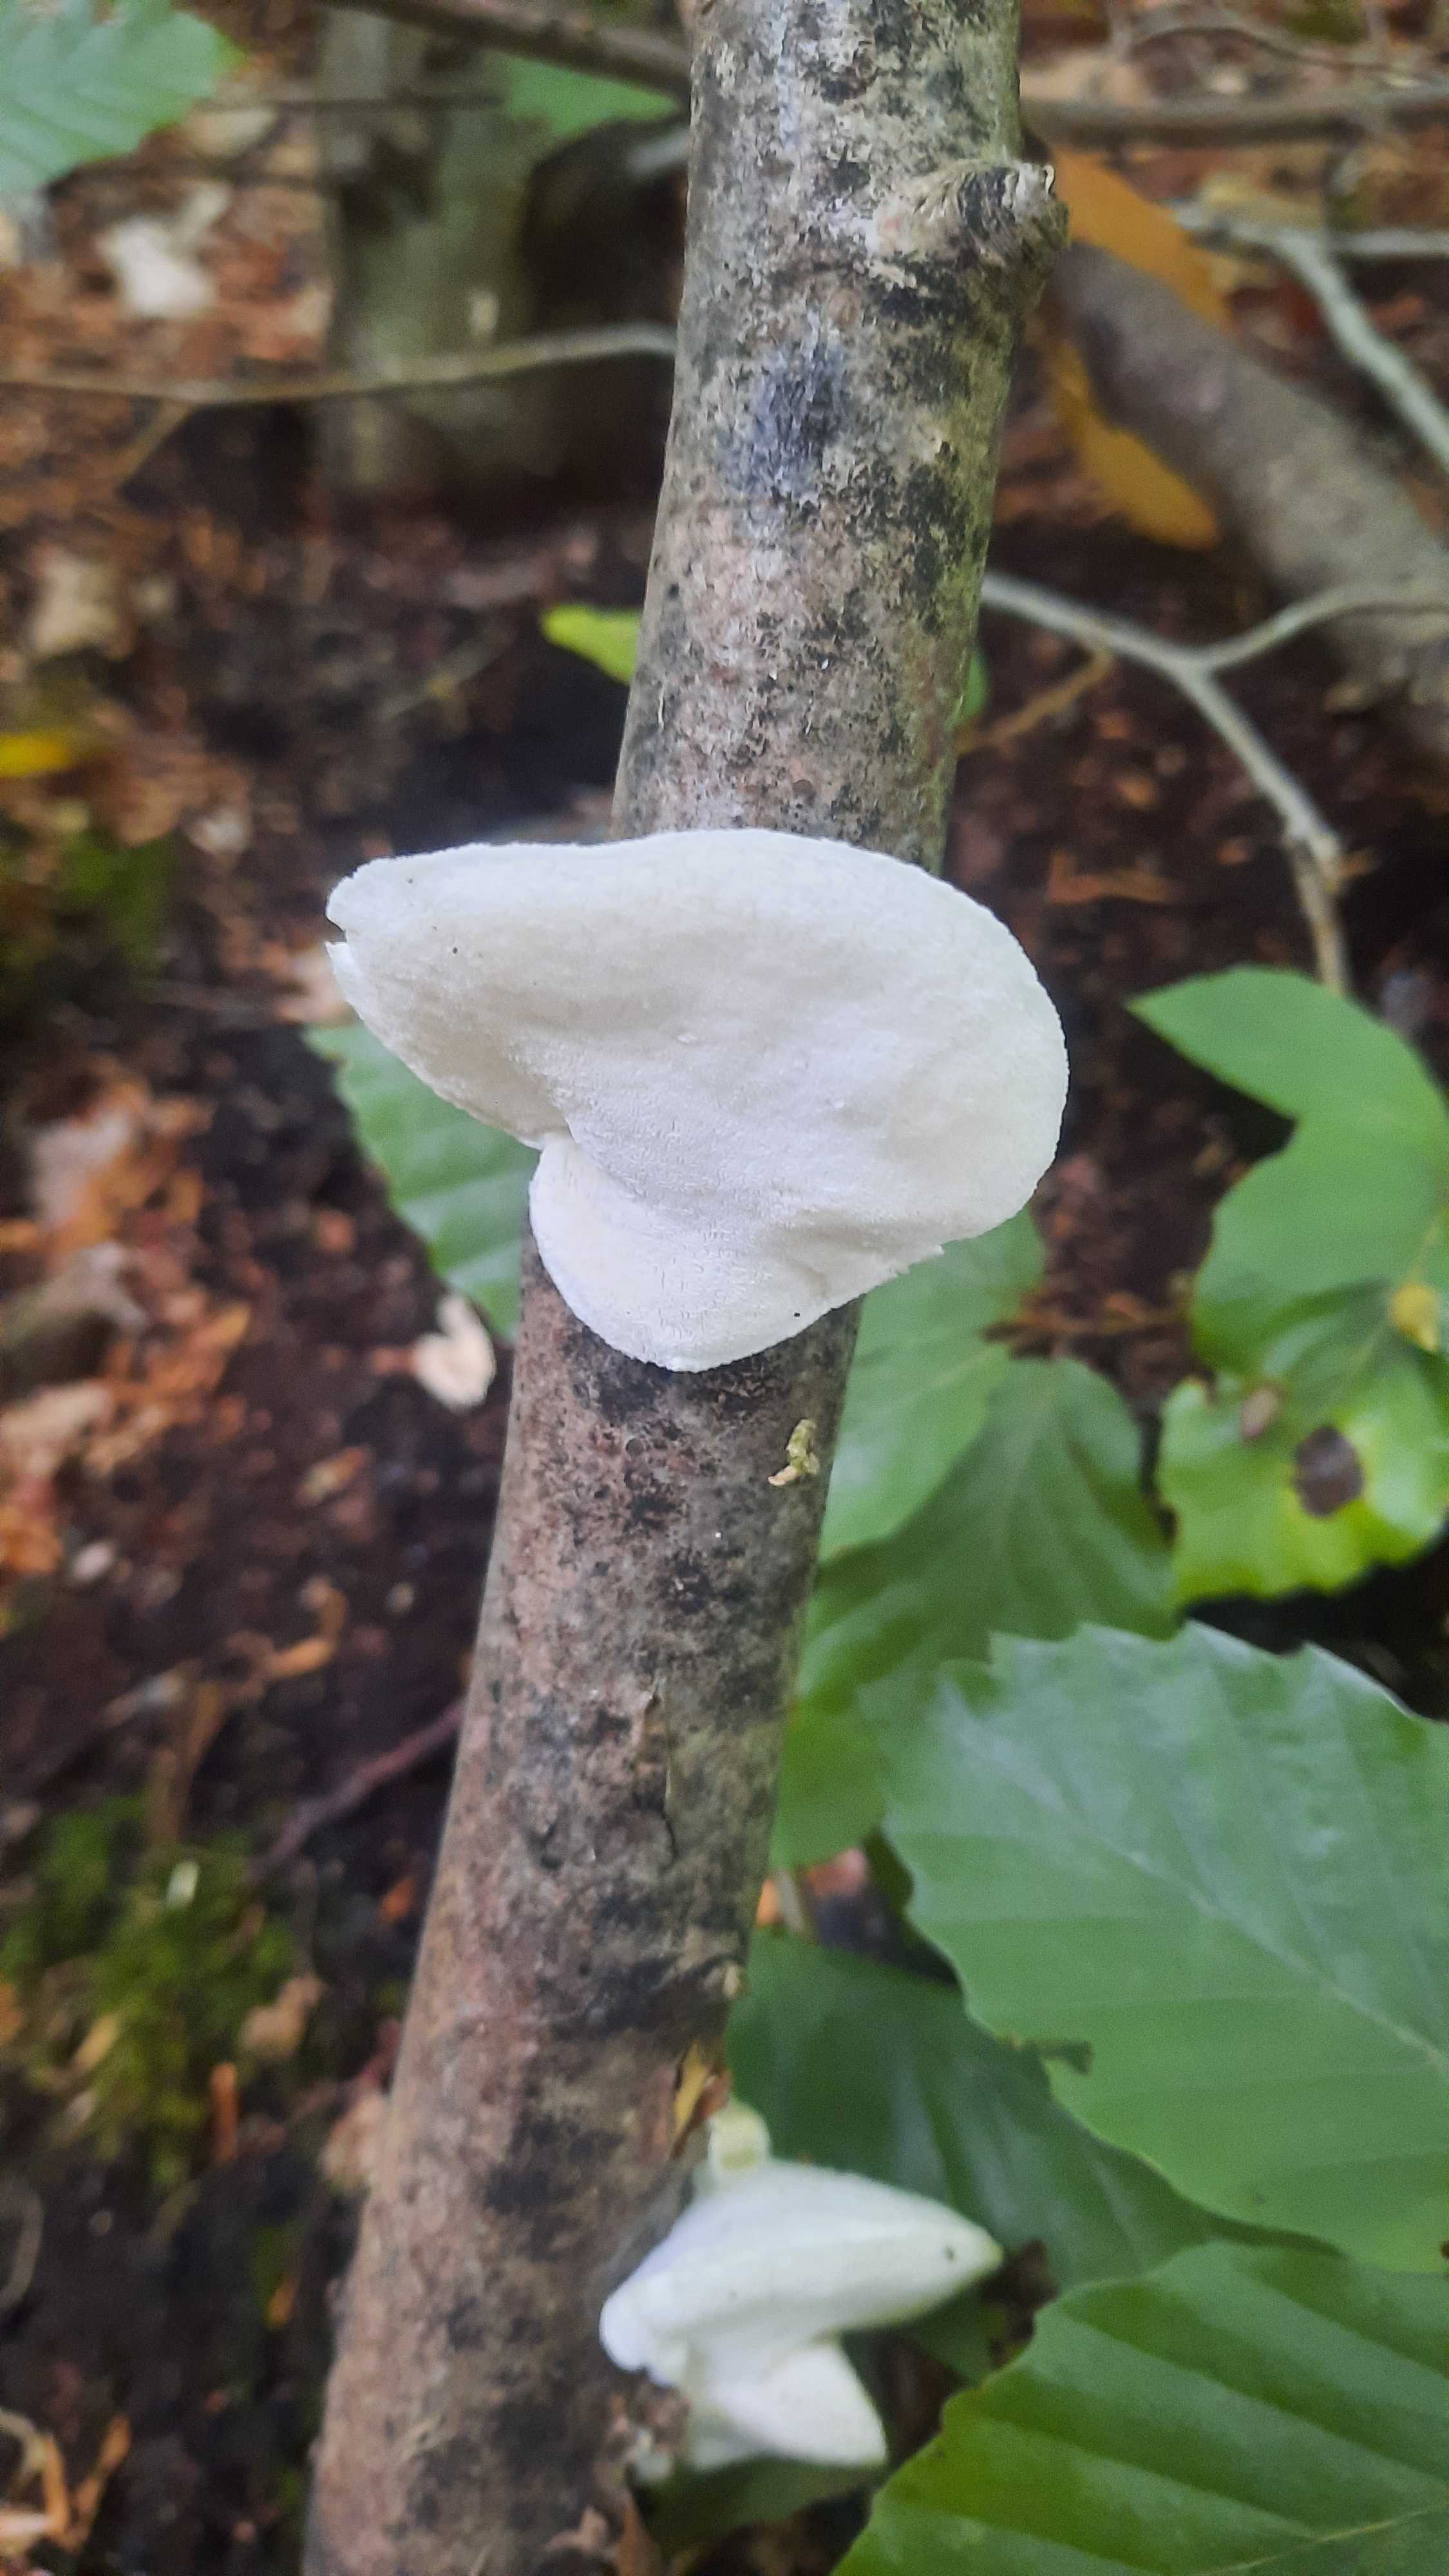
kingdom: Fungi
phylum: Basidiomycota
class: Agaricomycetes
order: Polyporales
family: Incrustoporiaceae
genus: Tyromyces
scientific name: Tyromyces lacteus
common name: mælkehvid kødporesvamp
